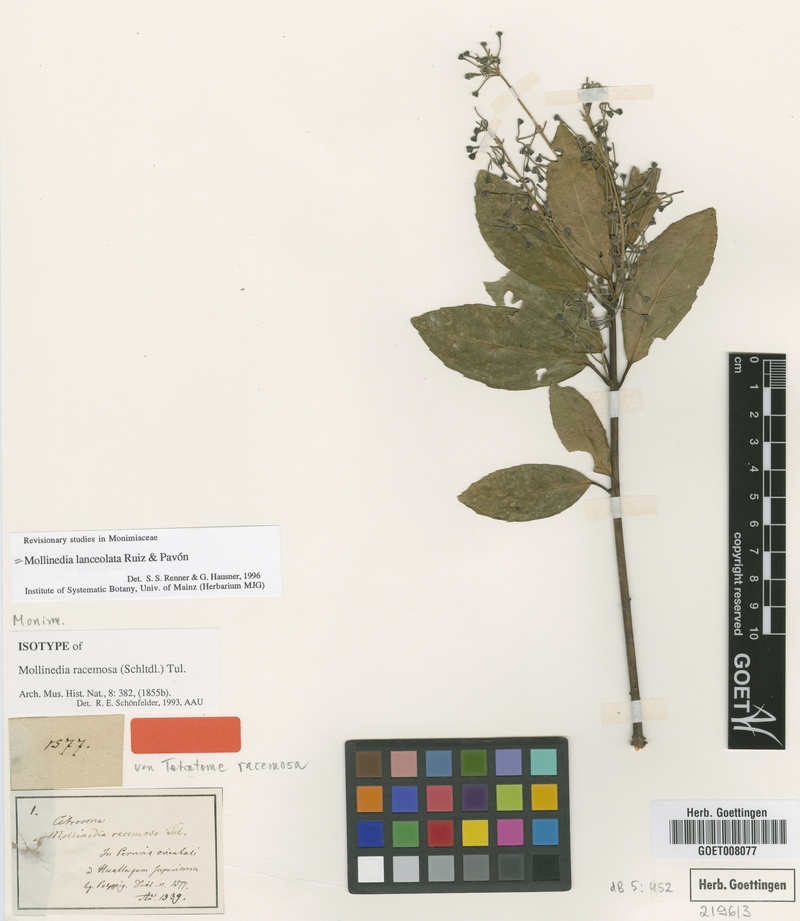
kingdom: Plantae
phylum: Tracheophyta
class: Magnoliopsida
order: Laurales
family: Monimiaceae
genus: Mollinedia
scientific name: Mollinedia lanceolata
